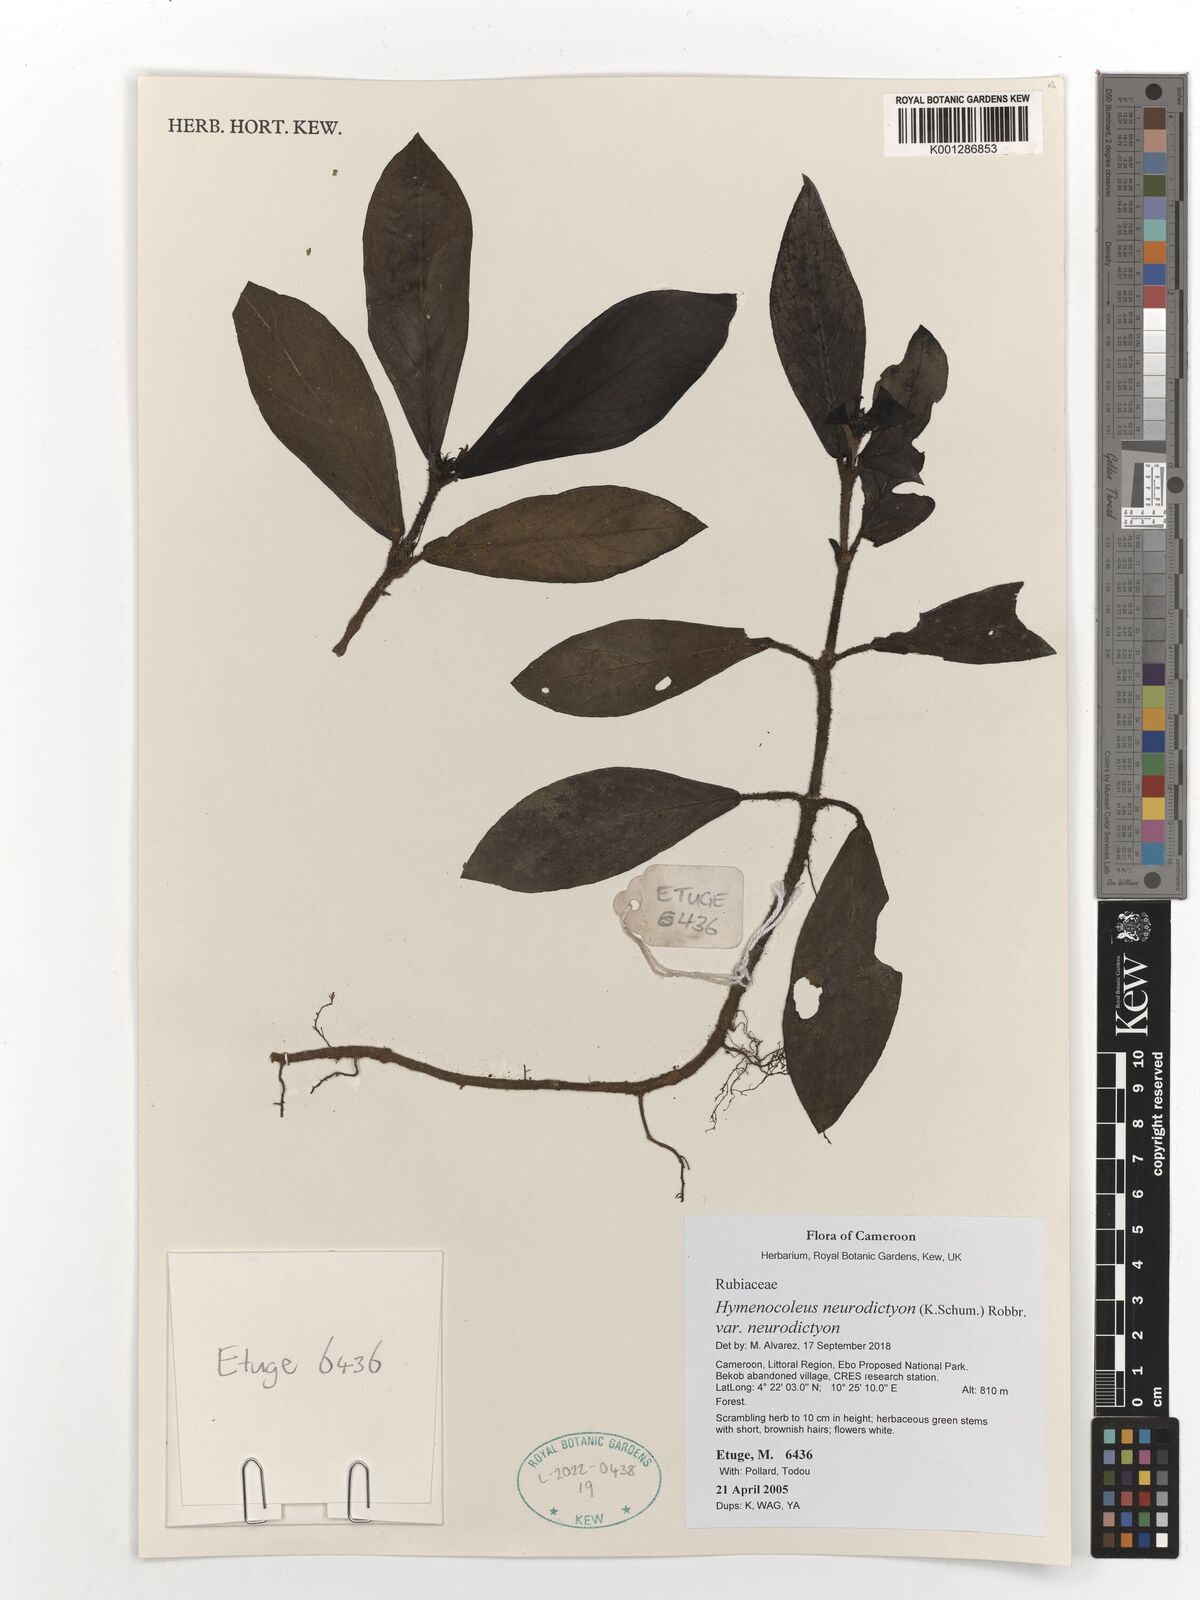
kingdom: Plantae
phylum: Tracheophyta
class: Magnoliopsida
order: Gentianales
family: Rubiaceae
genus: Hymenocoleus
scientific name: Hymenocoleus neurodictyon
